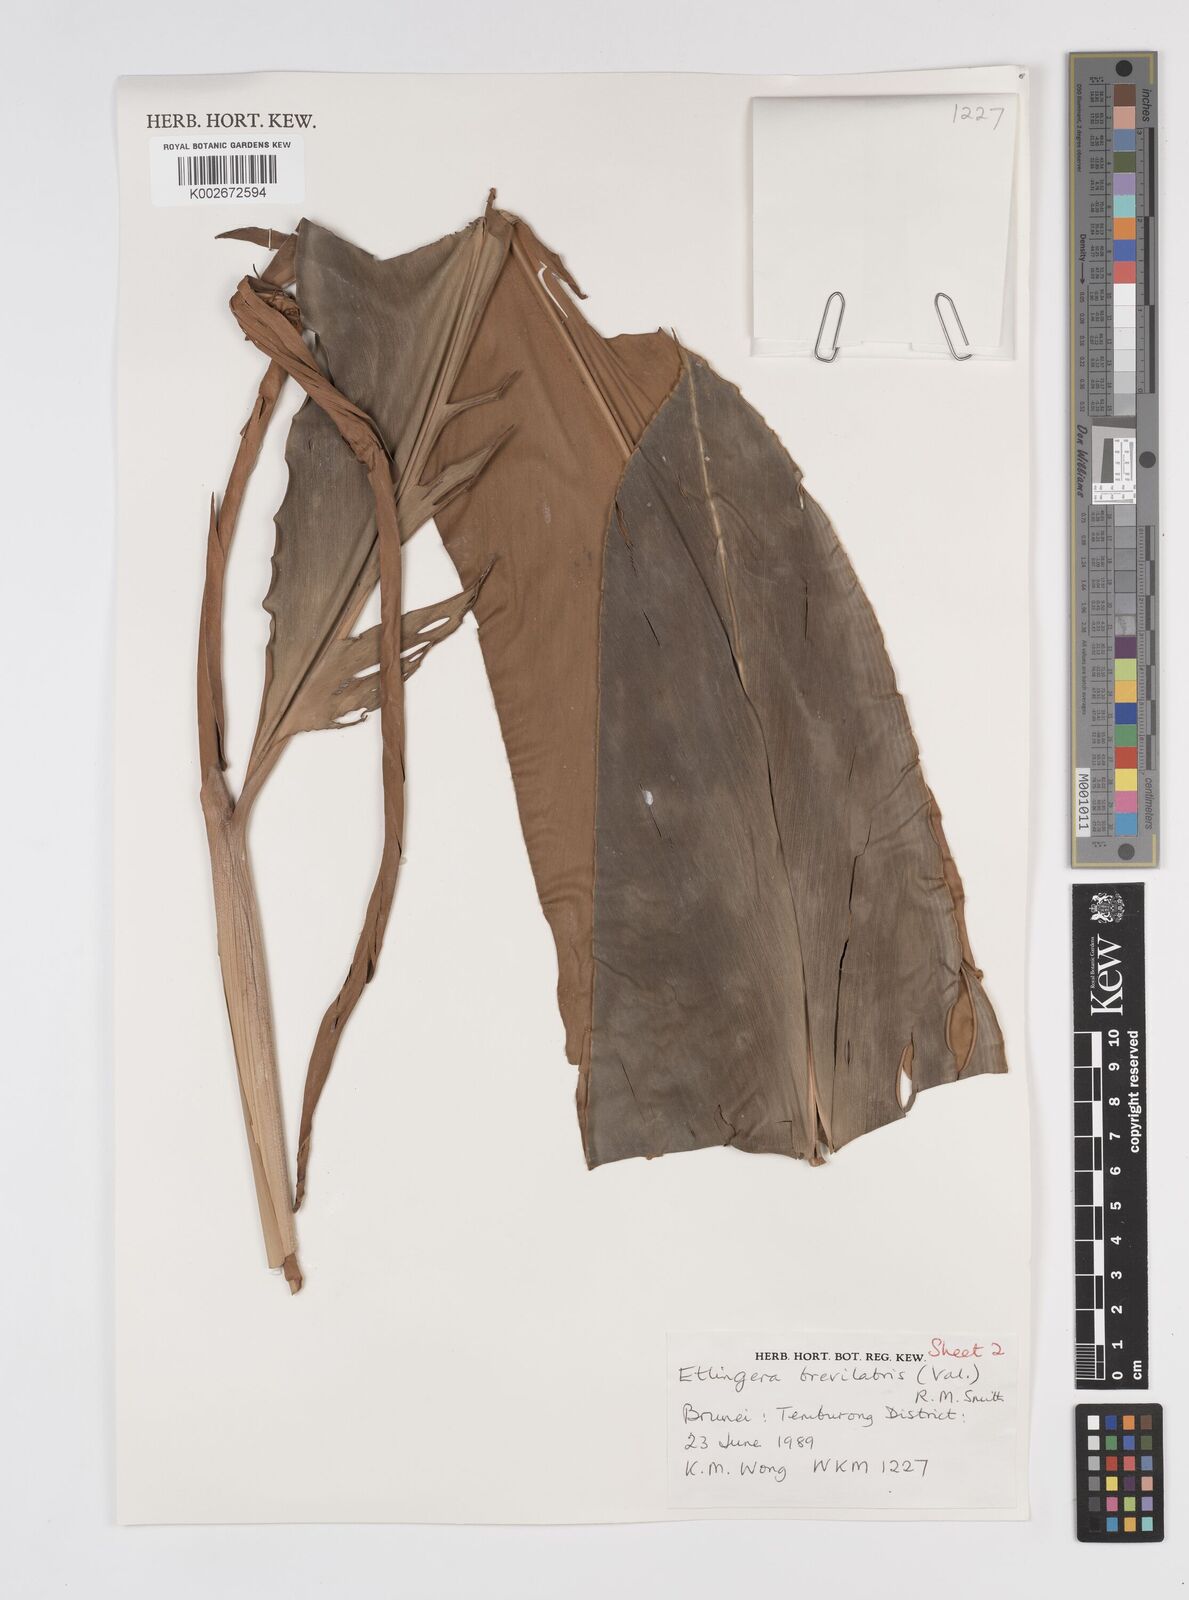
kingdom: Plantae
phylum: Tracheophyta
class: Liliopsida
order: Zingiberales
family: Zingiberaceae
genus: Etlingera
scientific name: Etlingera brevilabrum
